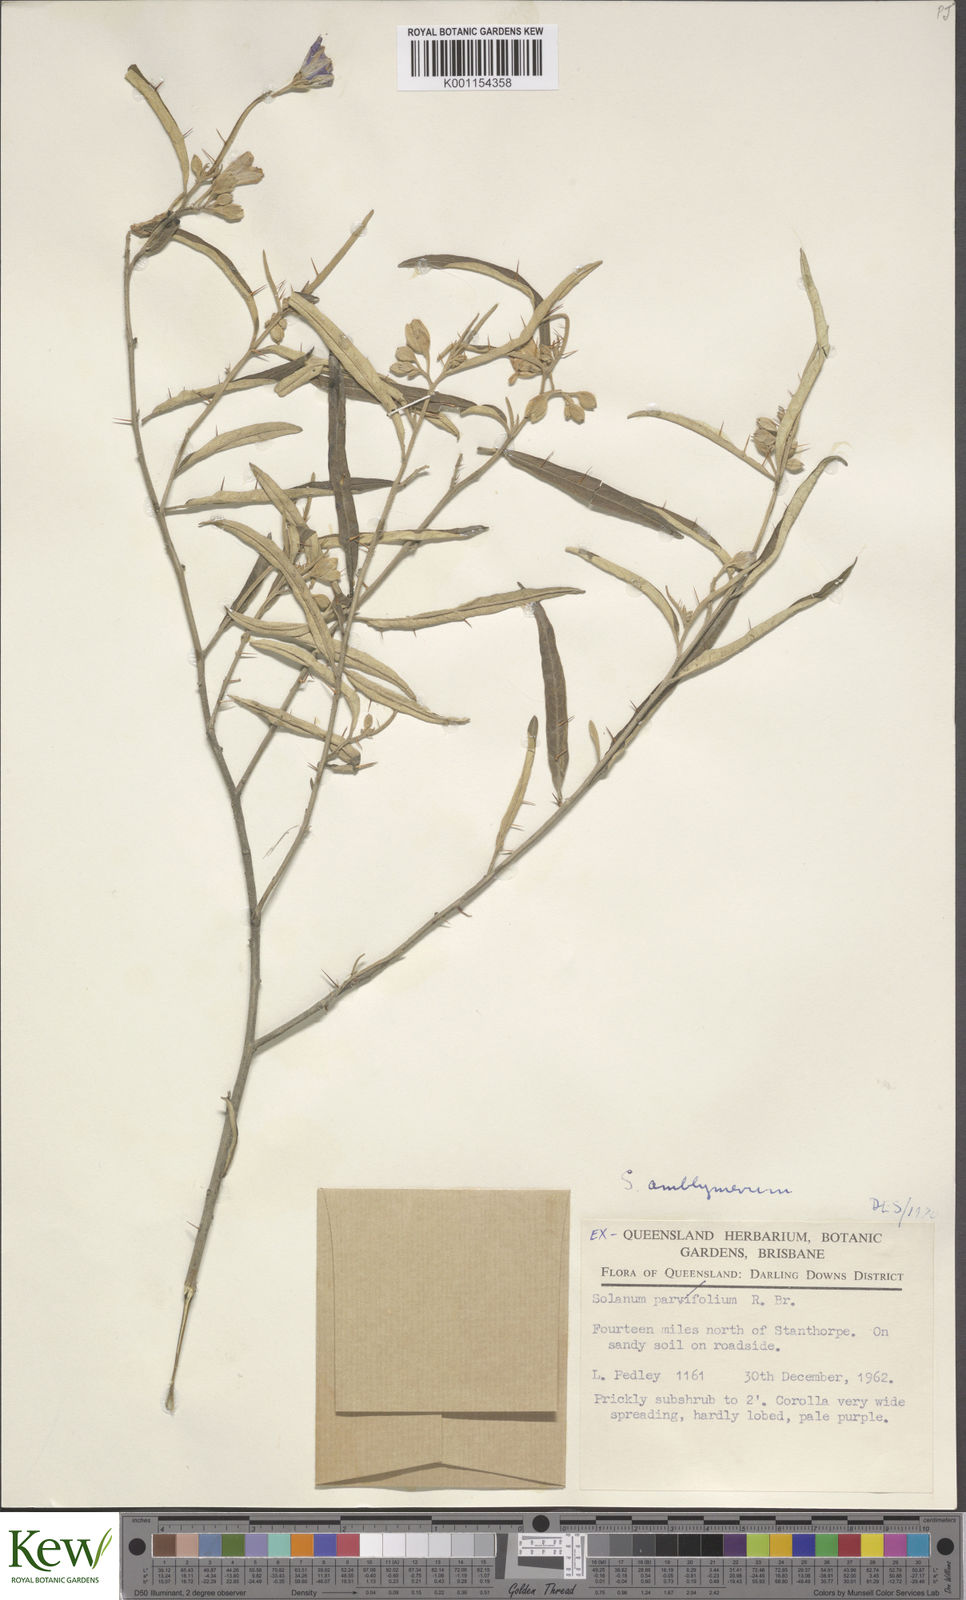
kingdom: Plantae
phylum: Tracheophyta
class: Magnoliopsida
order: Solanales
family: Solanaceae
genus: Solanum
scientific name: Solanum elegans
